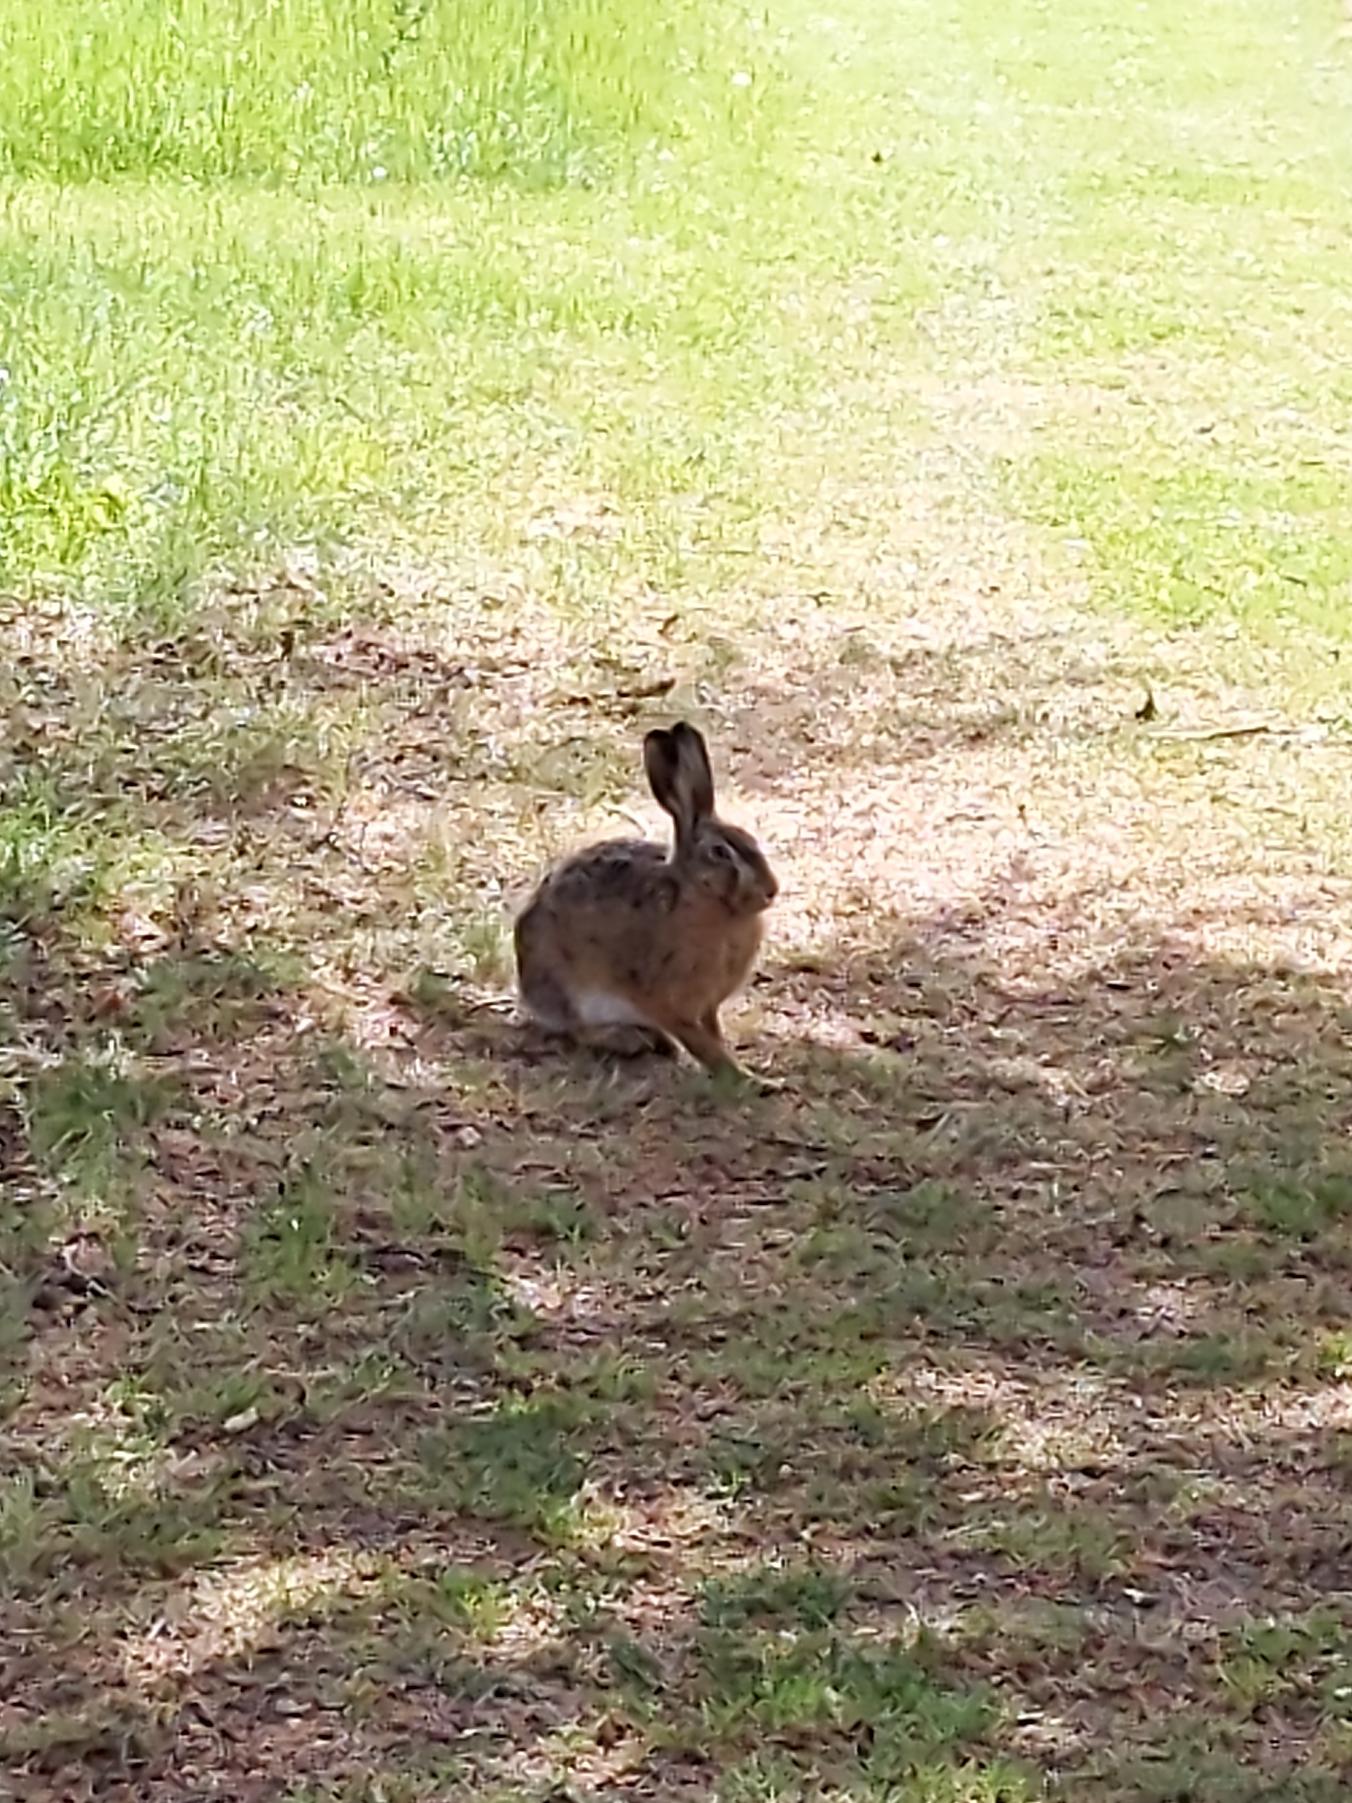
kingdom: Animalia
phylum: Chordata
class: Mammalia
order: Lagomorpha
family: Leporidae
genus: Lepus
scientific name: Lepus europaeus
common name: Hare
